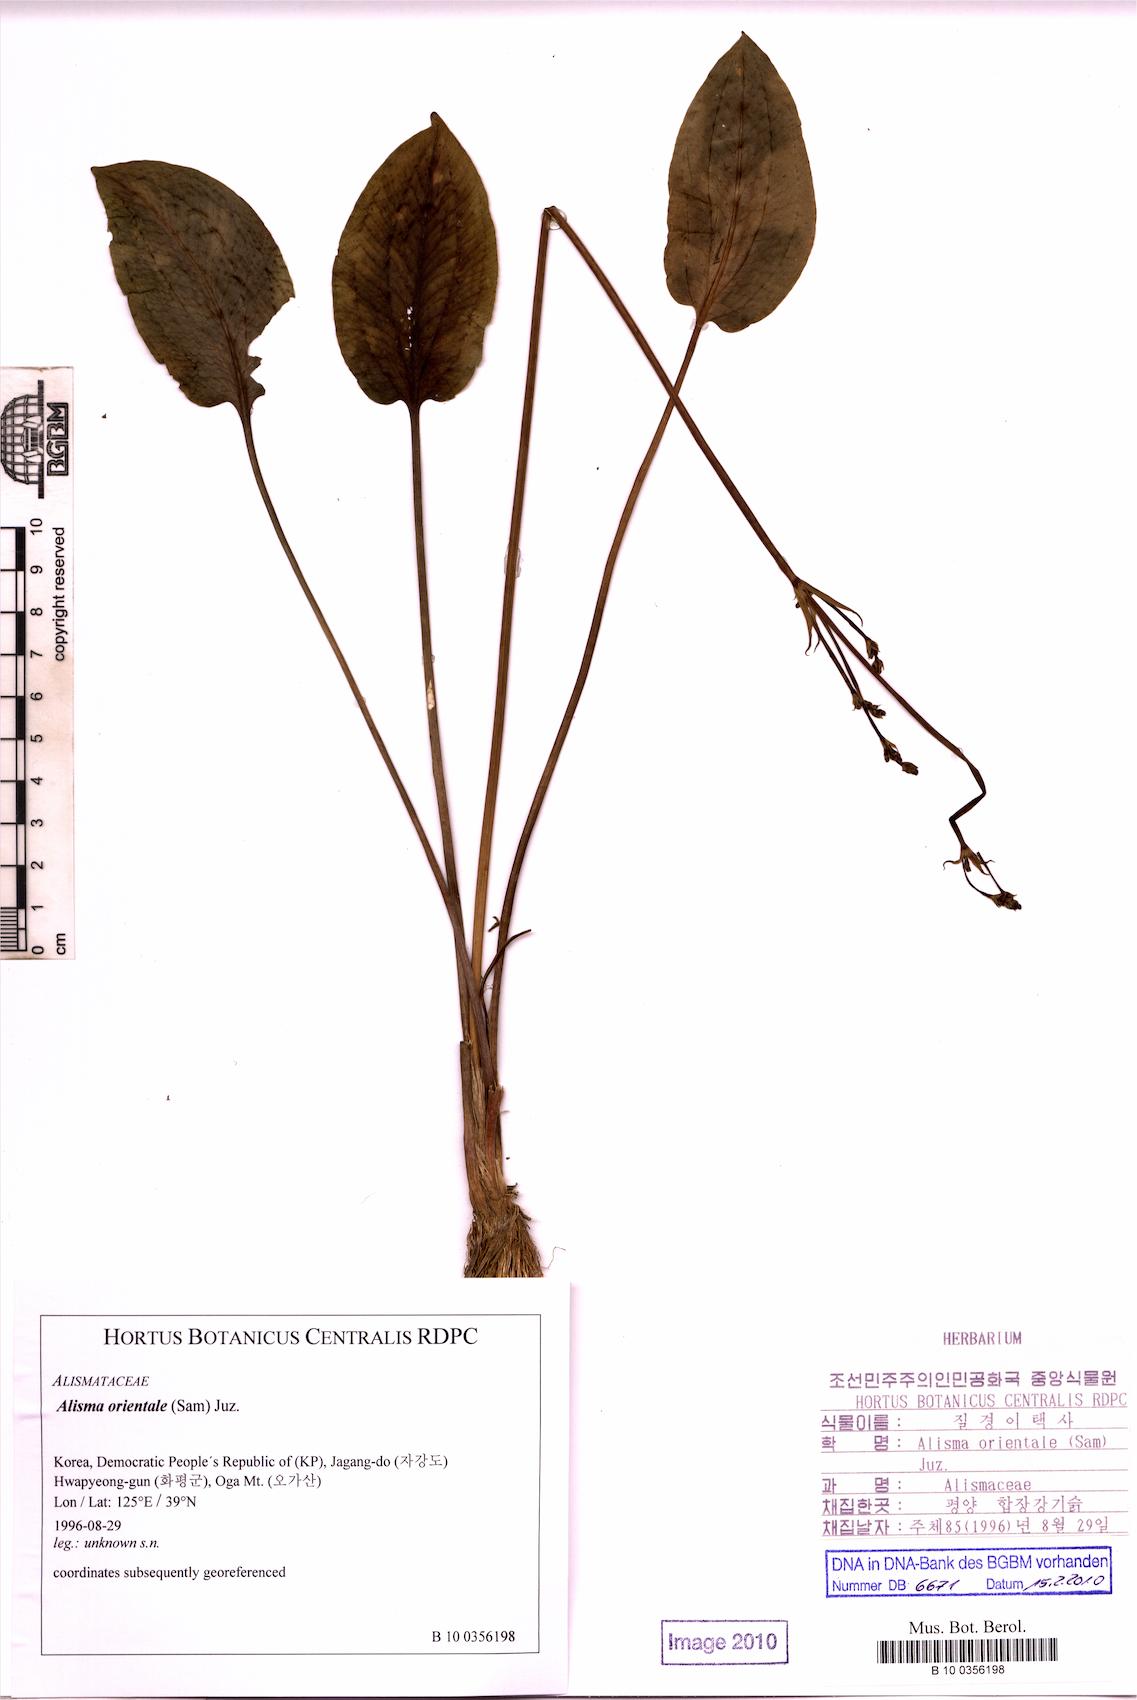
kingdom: Plantae
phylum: Tracheophyta
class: Liliopsida
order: Alismatales
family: Alismataceae
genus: Alisma
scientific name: Alisma plantago-aquatica
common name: Water-plantain
